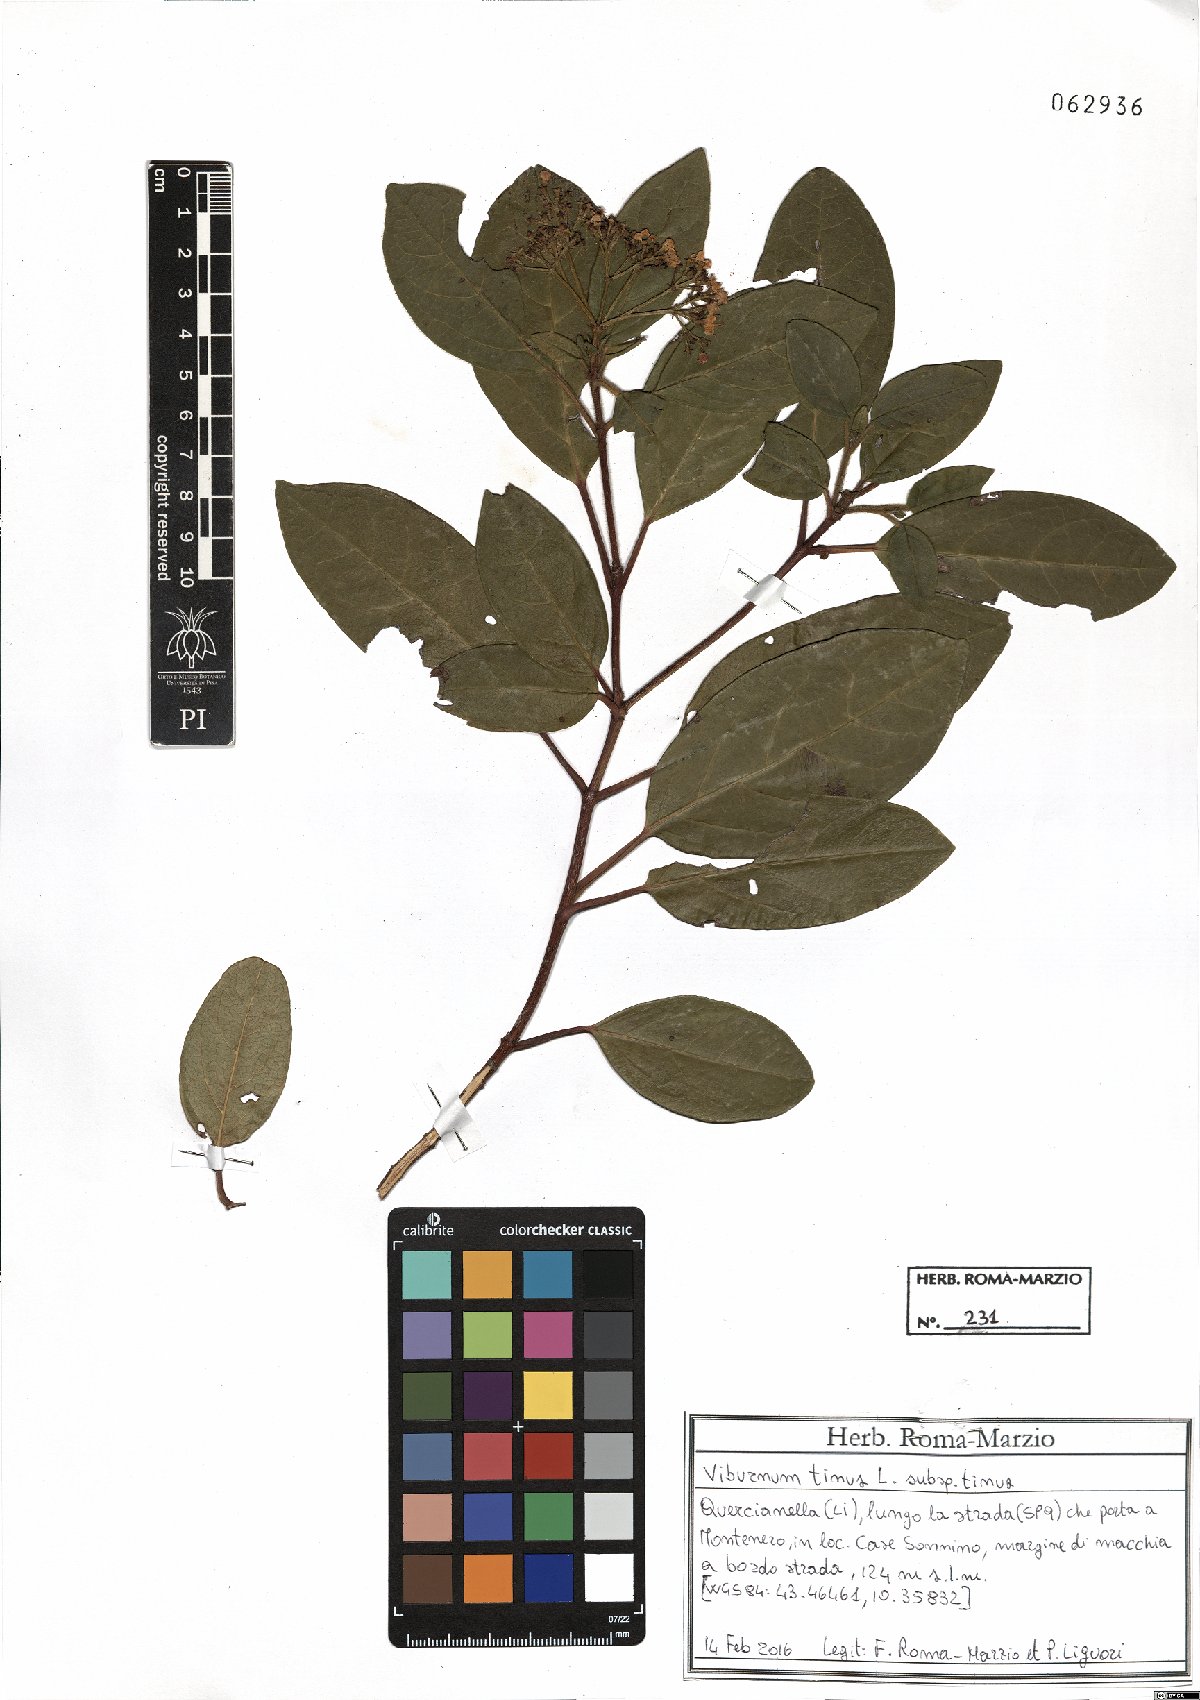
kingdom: Plantae
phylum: Tracheophyta
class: Magnoliopsida
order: Dipsacales
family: Viburnaceae
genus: Viburnum
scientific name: Viburnum tinus
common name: Laurustinus
